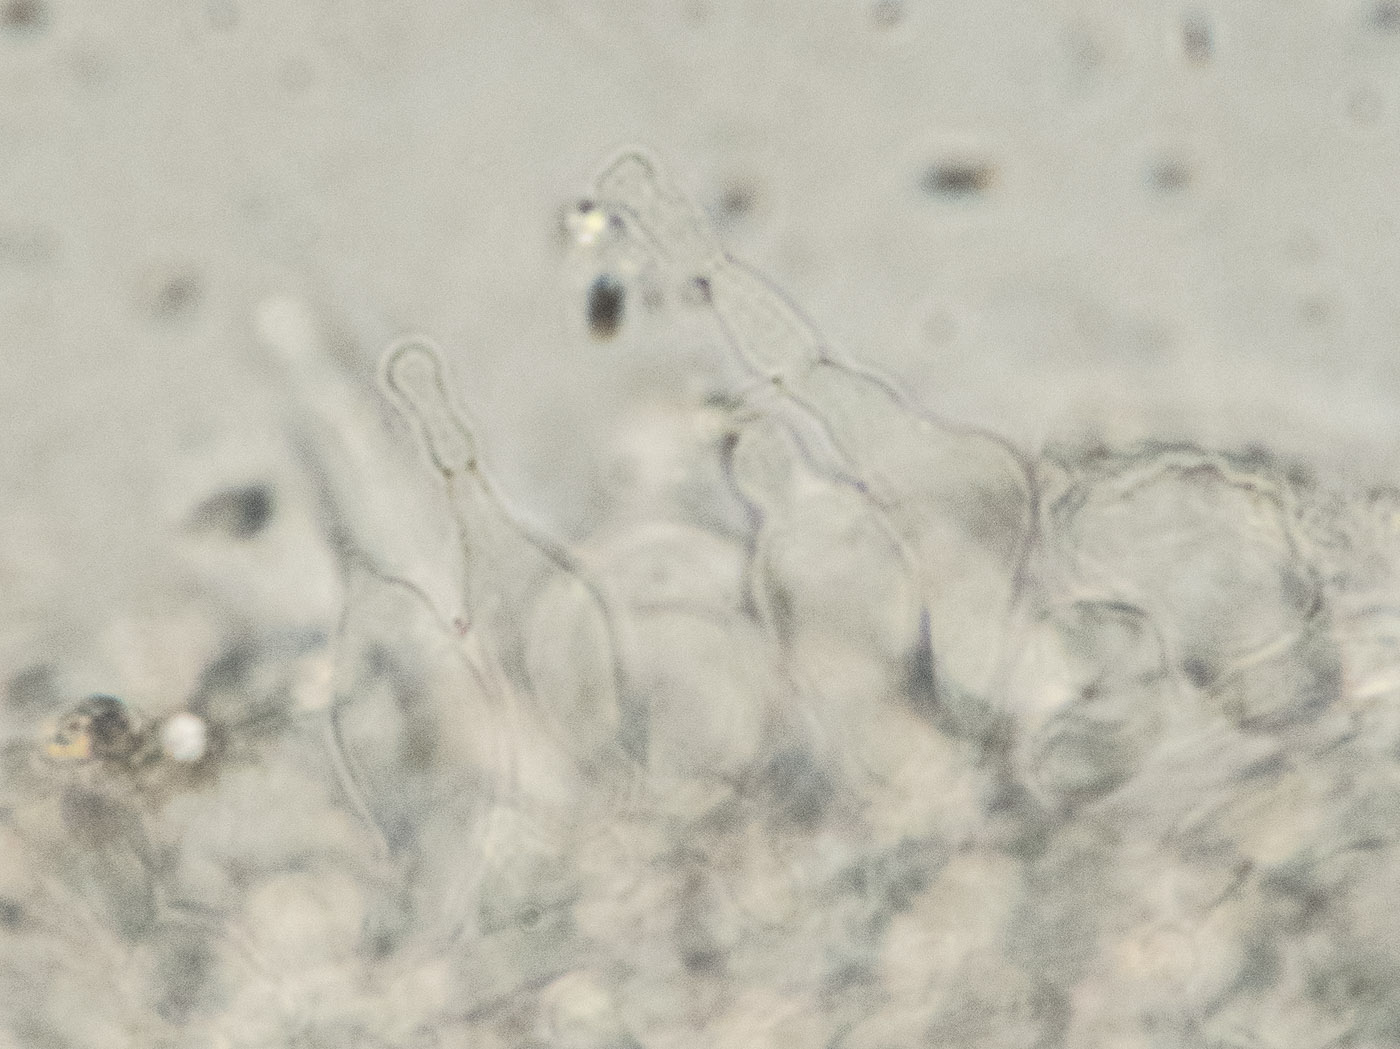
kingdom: Fungi
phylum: Basidiomycota
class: Agaricomycetes
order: Agaricales
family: Omphalotaceae
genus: Marasmiellus
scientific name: Marasmiellus lateralis
